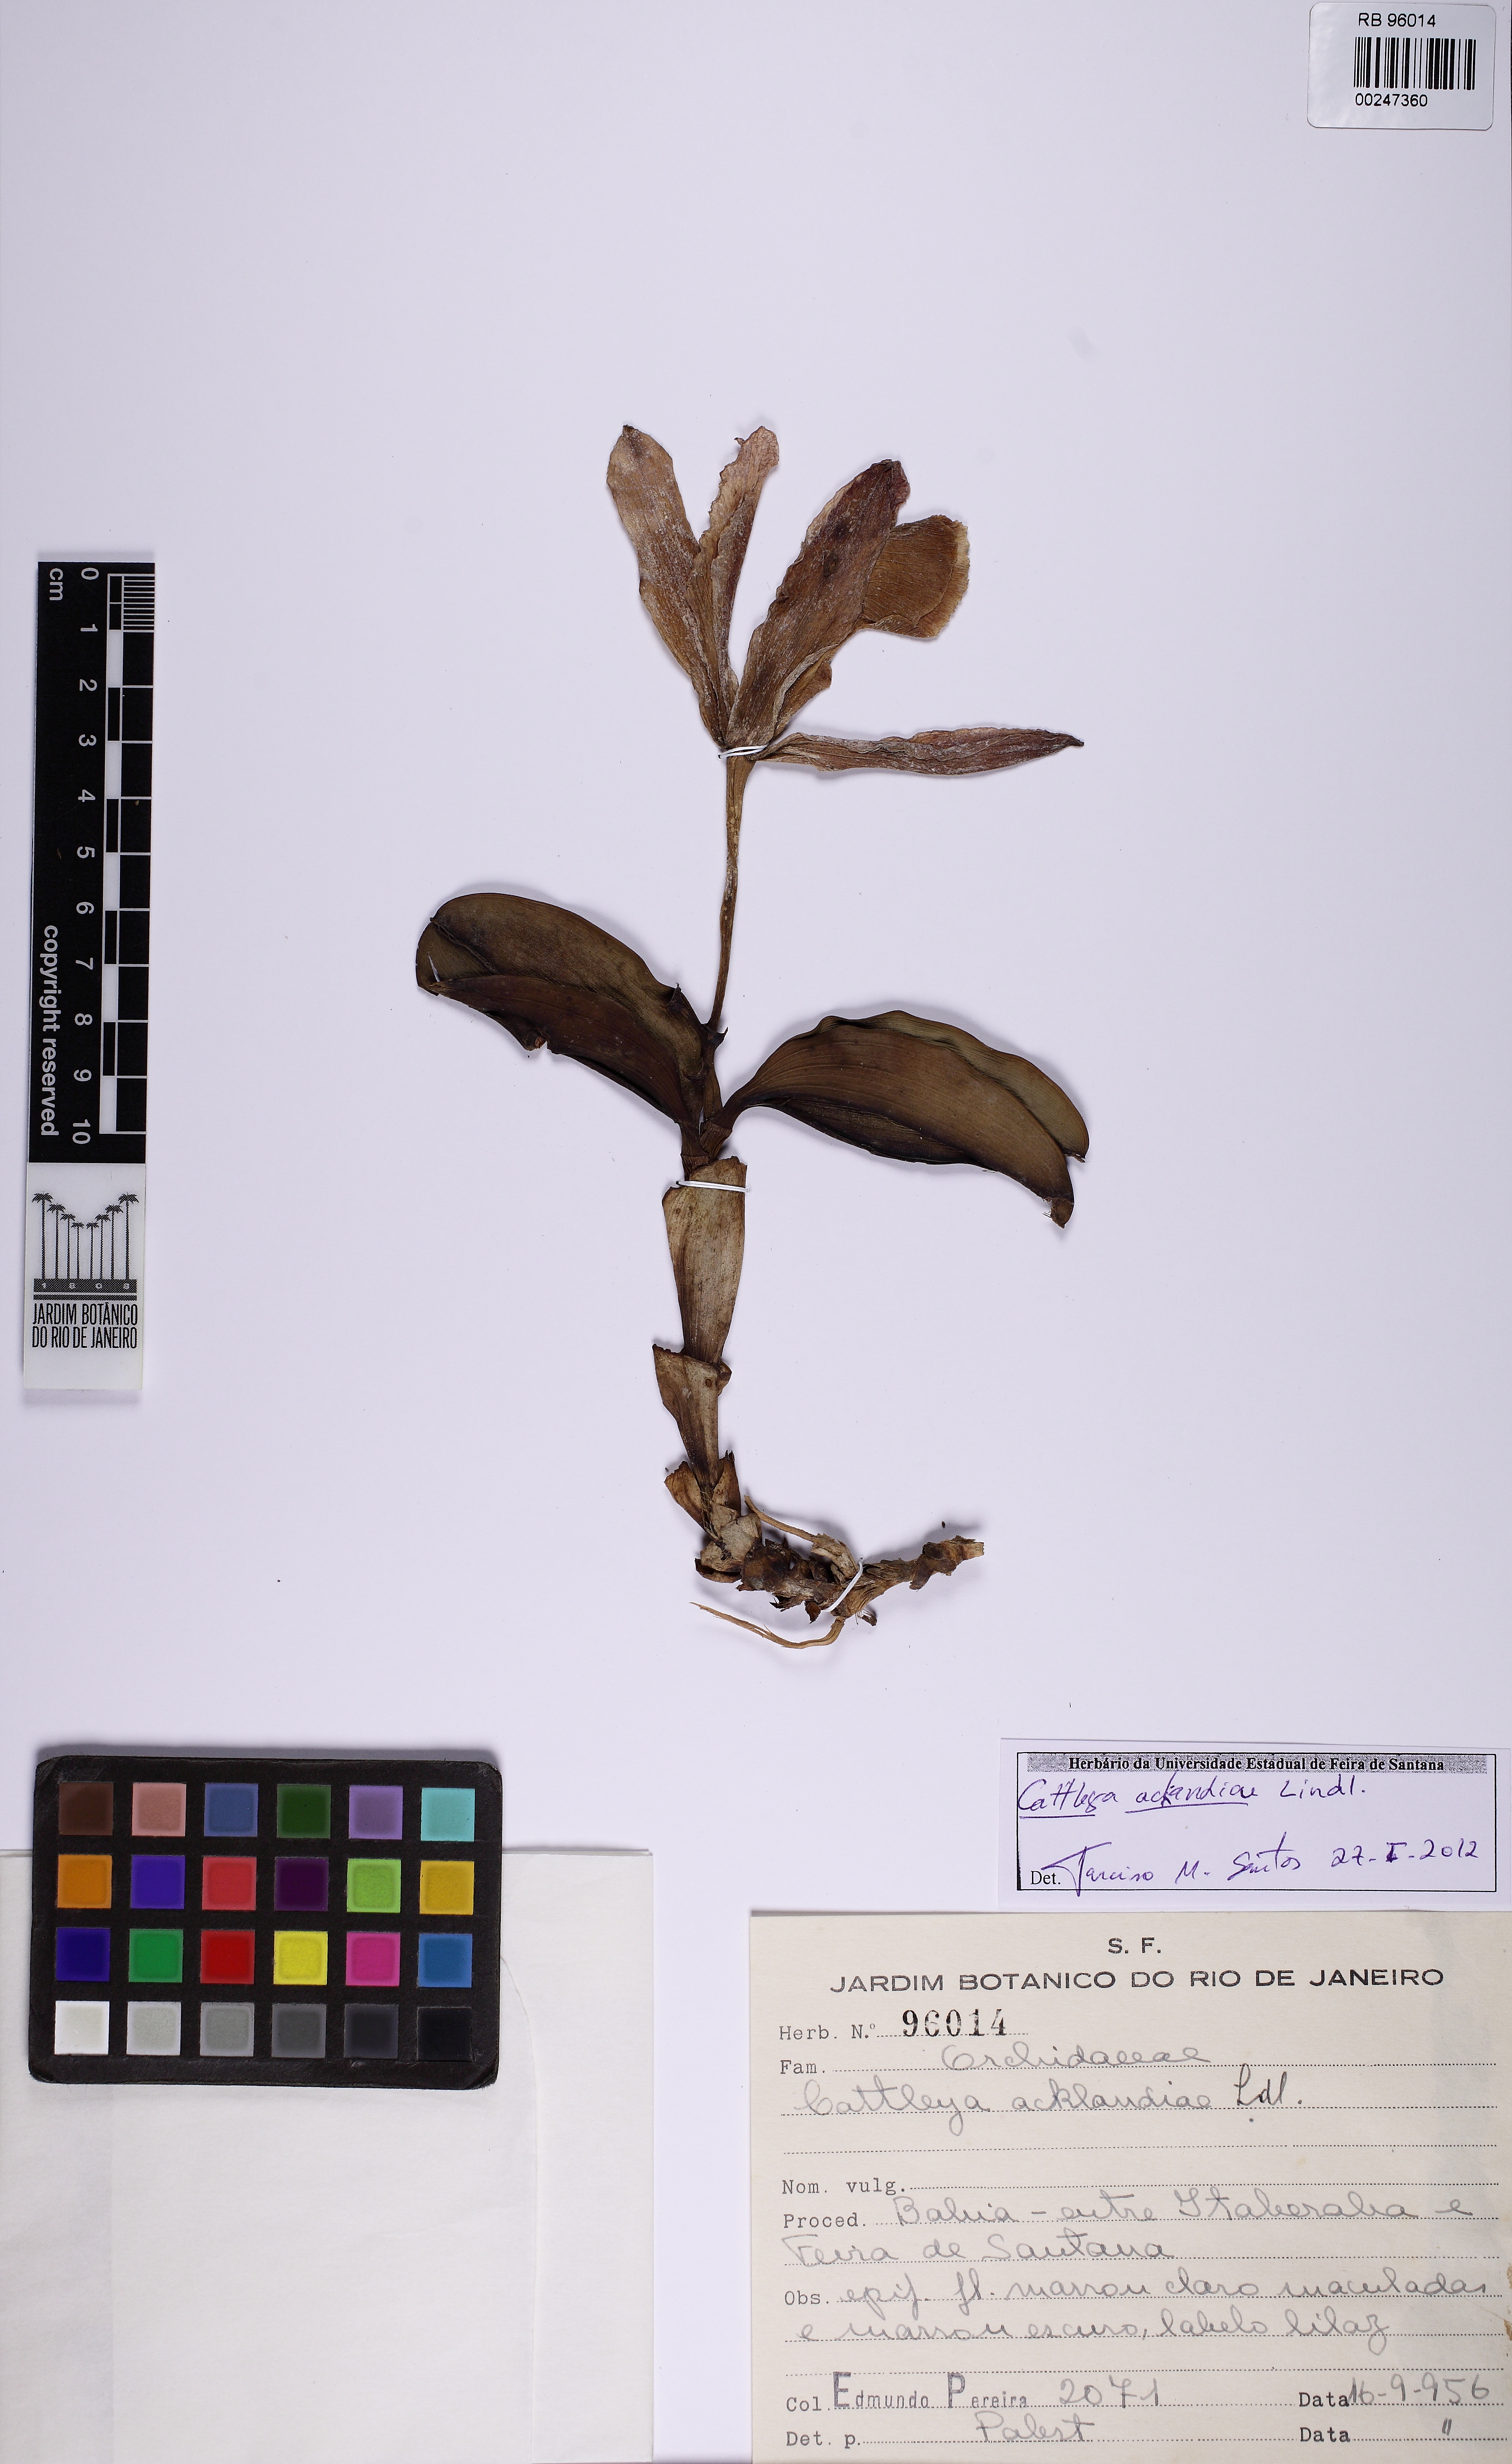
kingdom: Plantae
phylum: Tracheophyta
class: Liliopsida
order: Asparagales
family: Orchidaceae
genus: Cattleya
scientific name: Cattleya aclandiae
